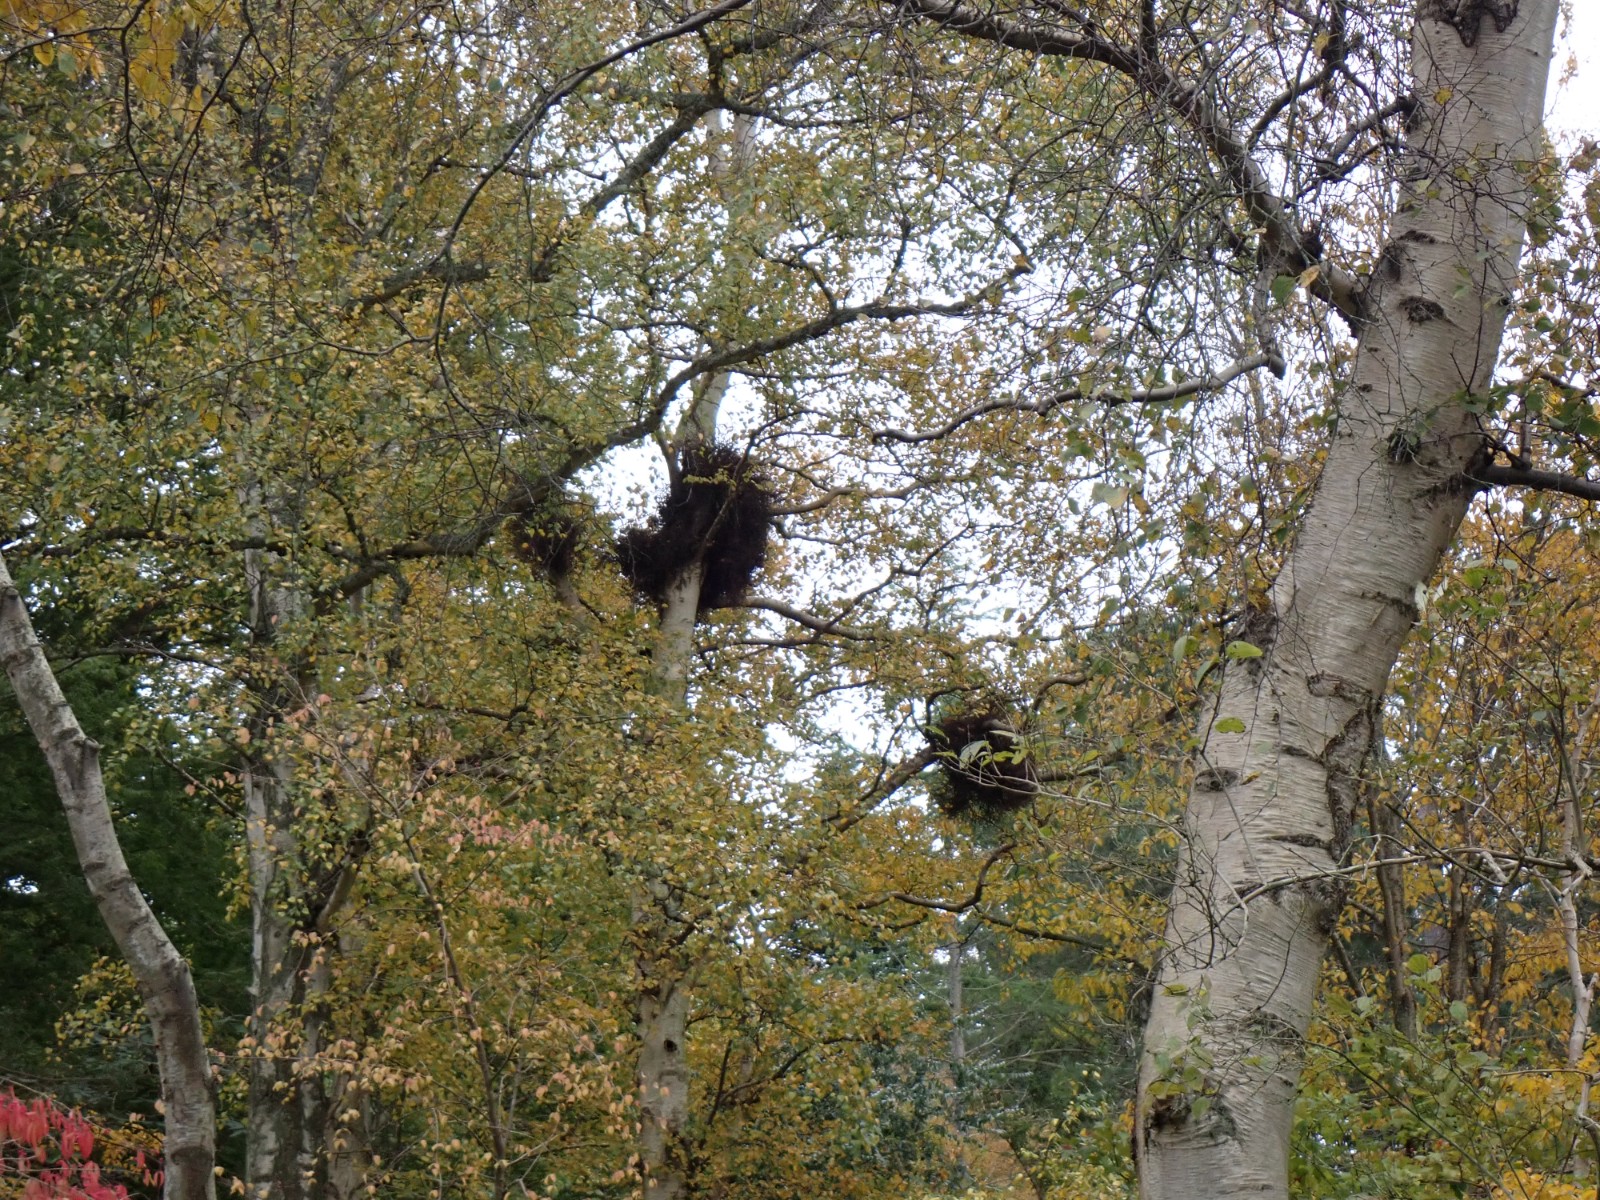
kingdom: Fungi
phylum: Ascomycota
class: Taphrinomycetes
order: Taphrinales
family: Taphrinaceae
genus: Taphrina
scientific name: Taphrina betulina
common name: hekse-sækdug
